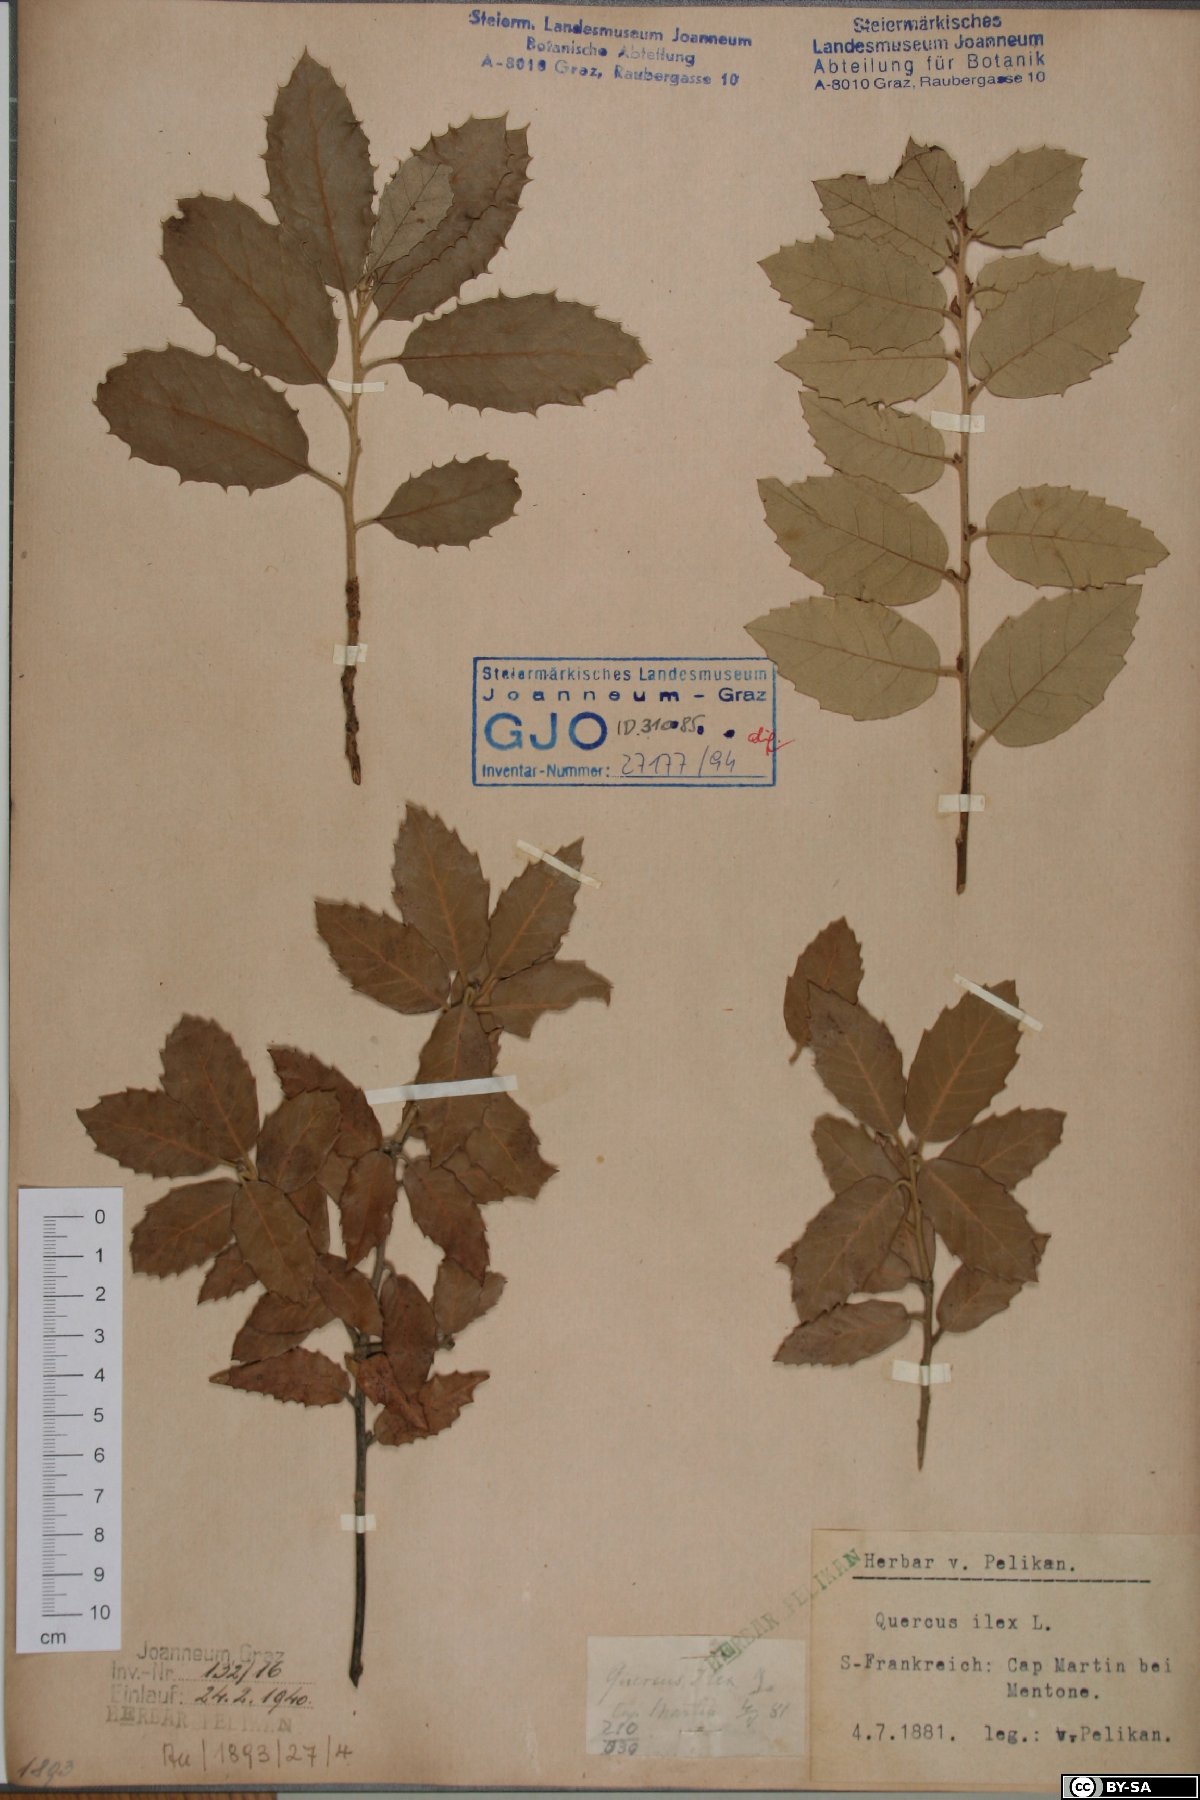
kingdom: Plantae
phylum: Tracheophyta
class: Magnoliopsida
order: Fagales
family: Fagaceae
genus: Quercus
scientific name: Quercus ilex
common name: Evergreen oak
